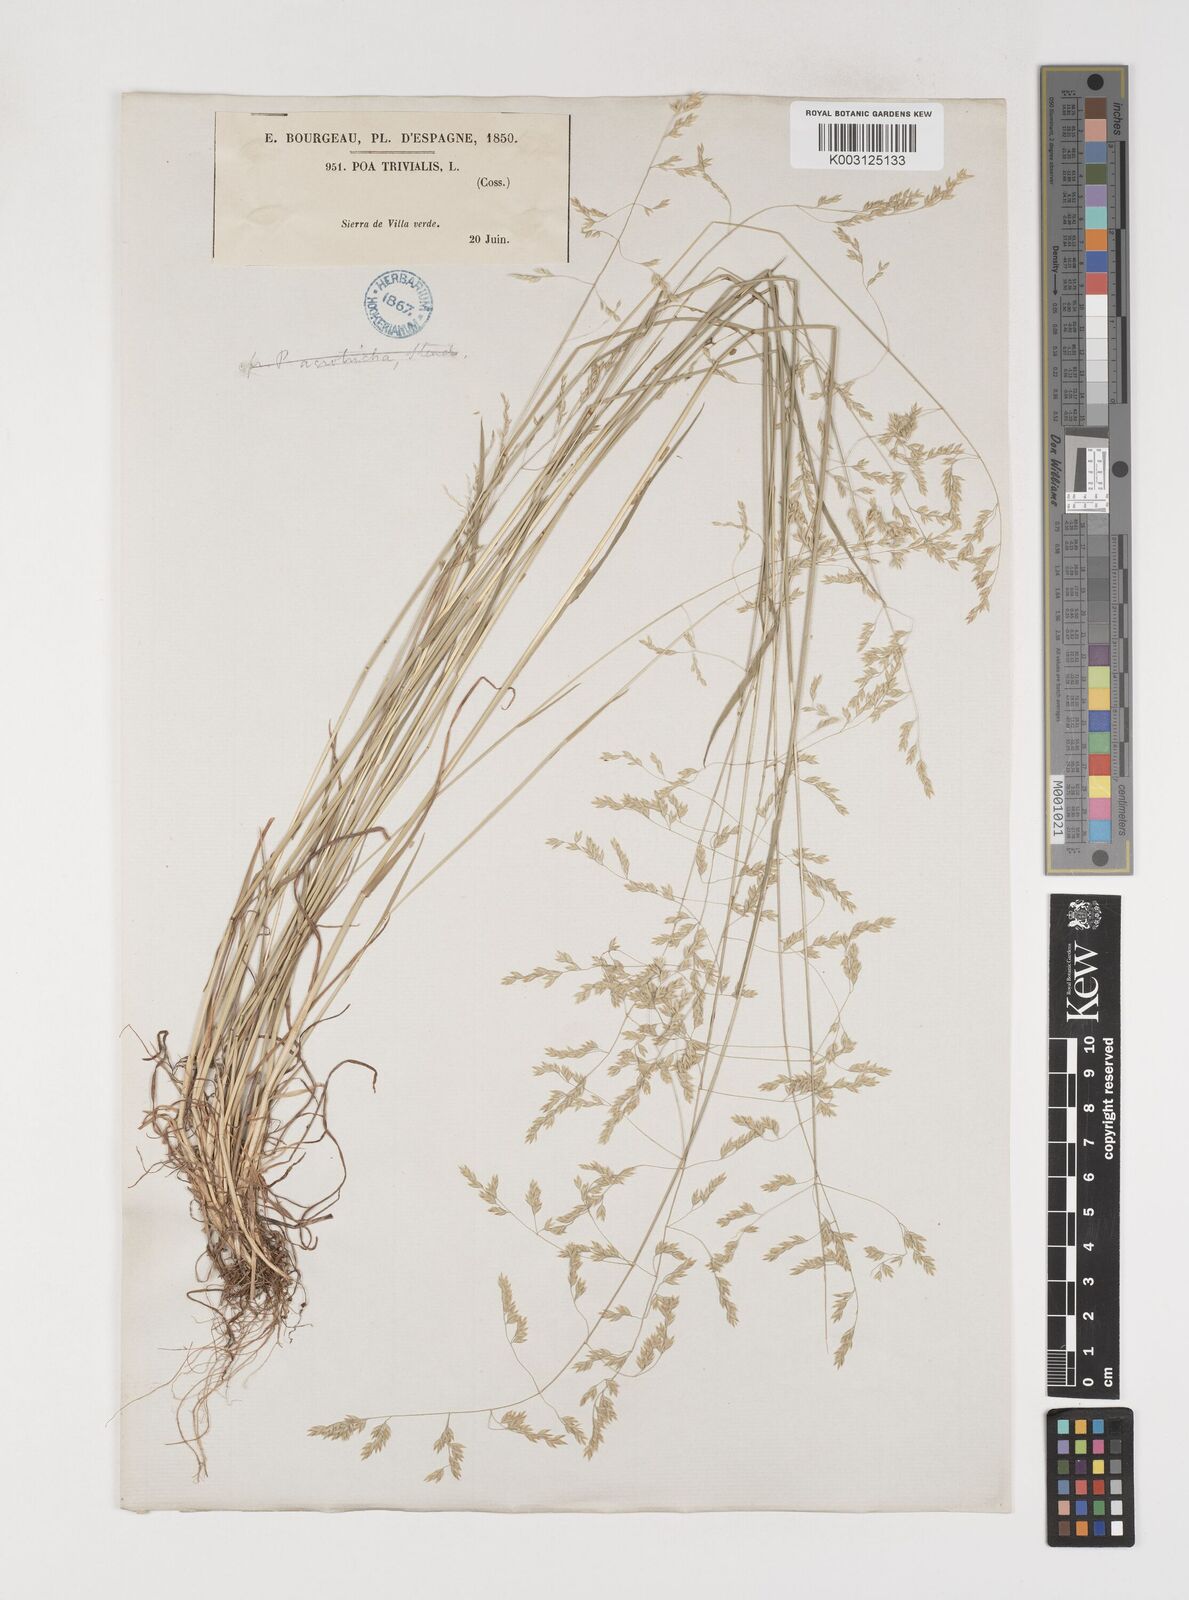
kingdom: Plantae
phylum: Tracheophyta
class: Liliopsida
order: Poales
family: Poaceae
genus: Poa
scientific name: Poa trivialis
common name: Rough bluegrass
